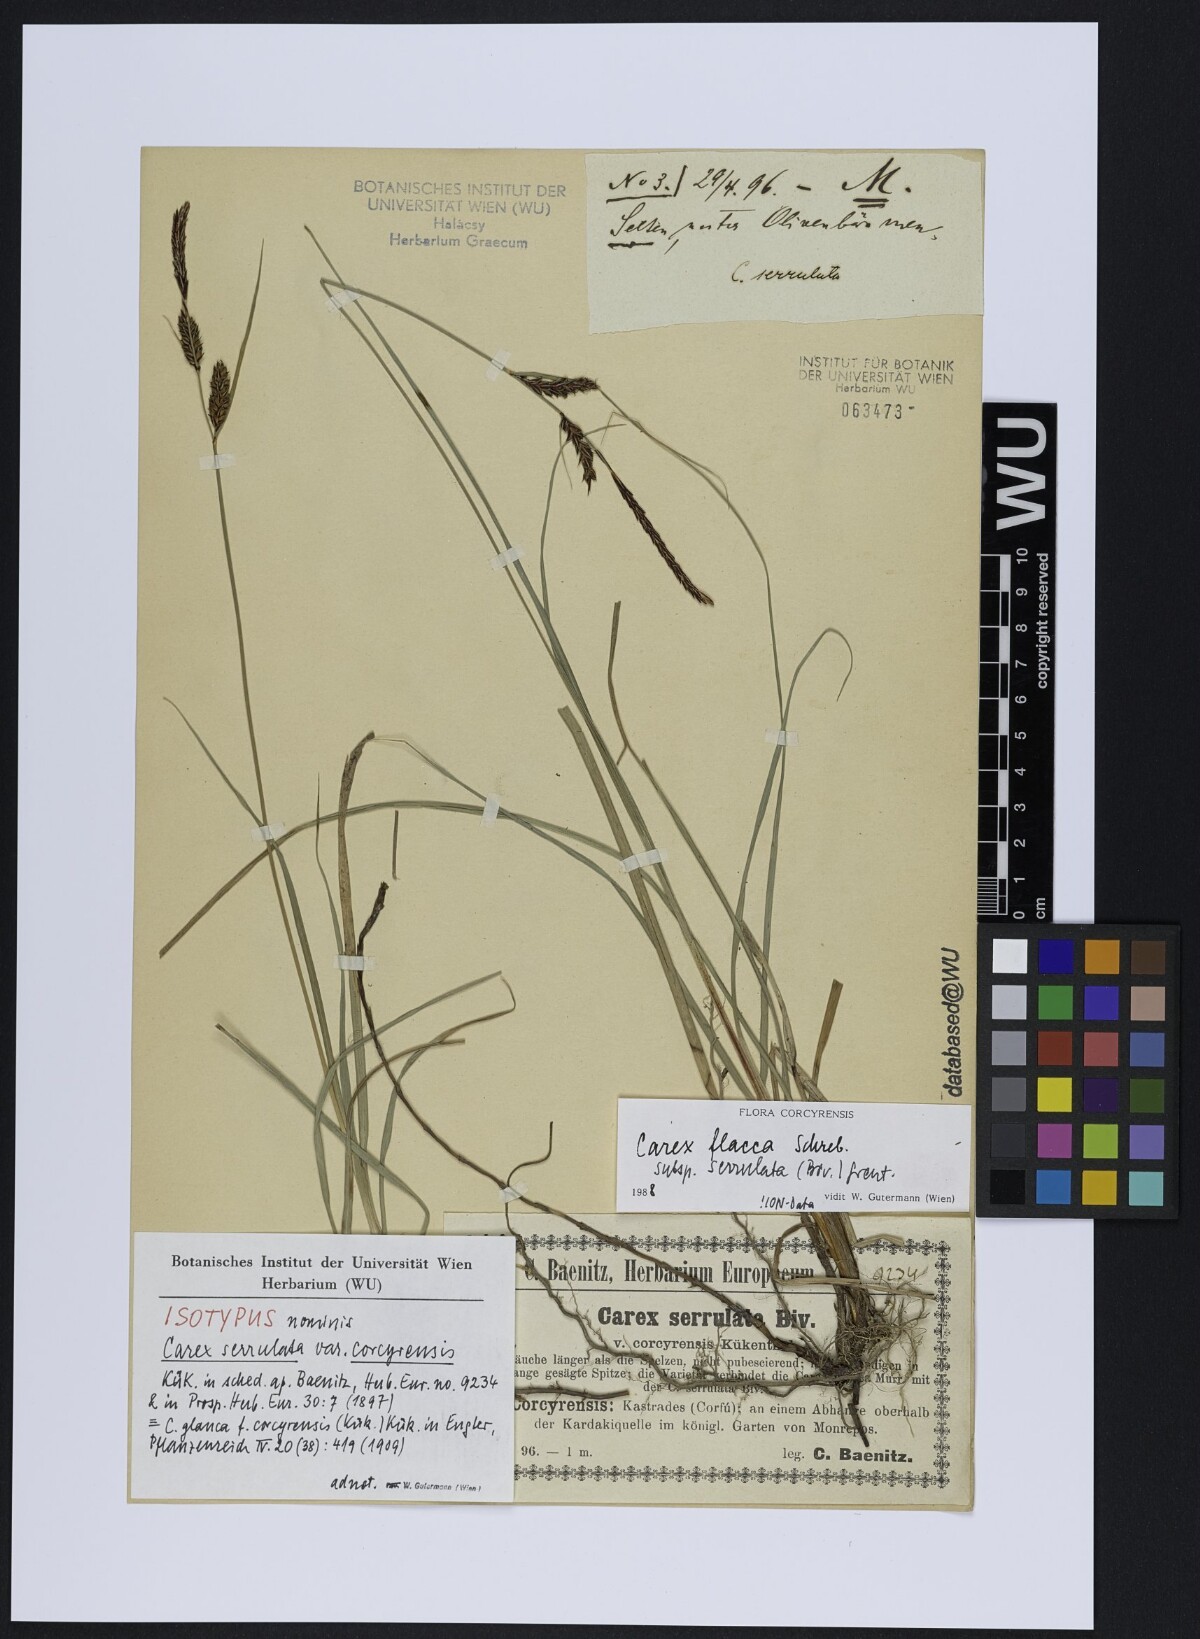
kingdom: Plantae
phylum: Tracheophyta
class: Liliopsida
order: Poales
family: Cyperaceae
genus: Carex
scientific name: Carex flacca
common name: Glaucous sedge
